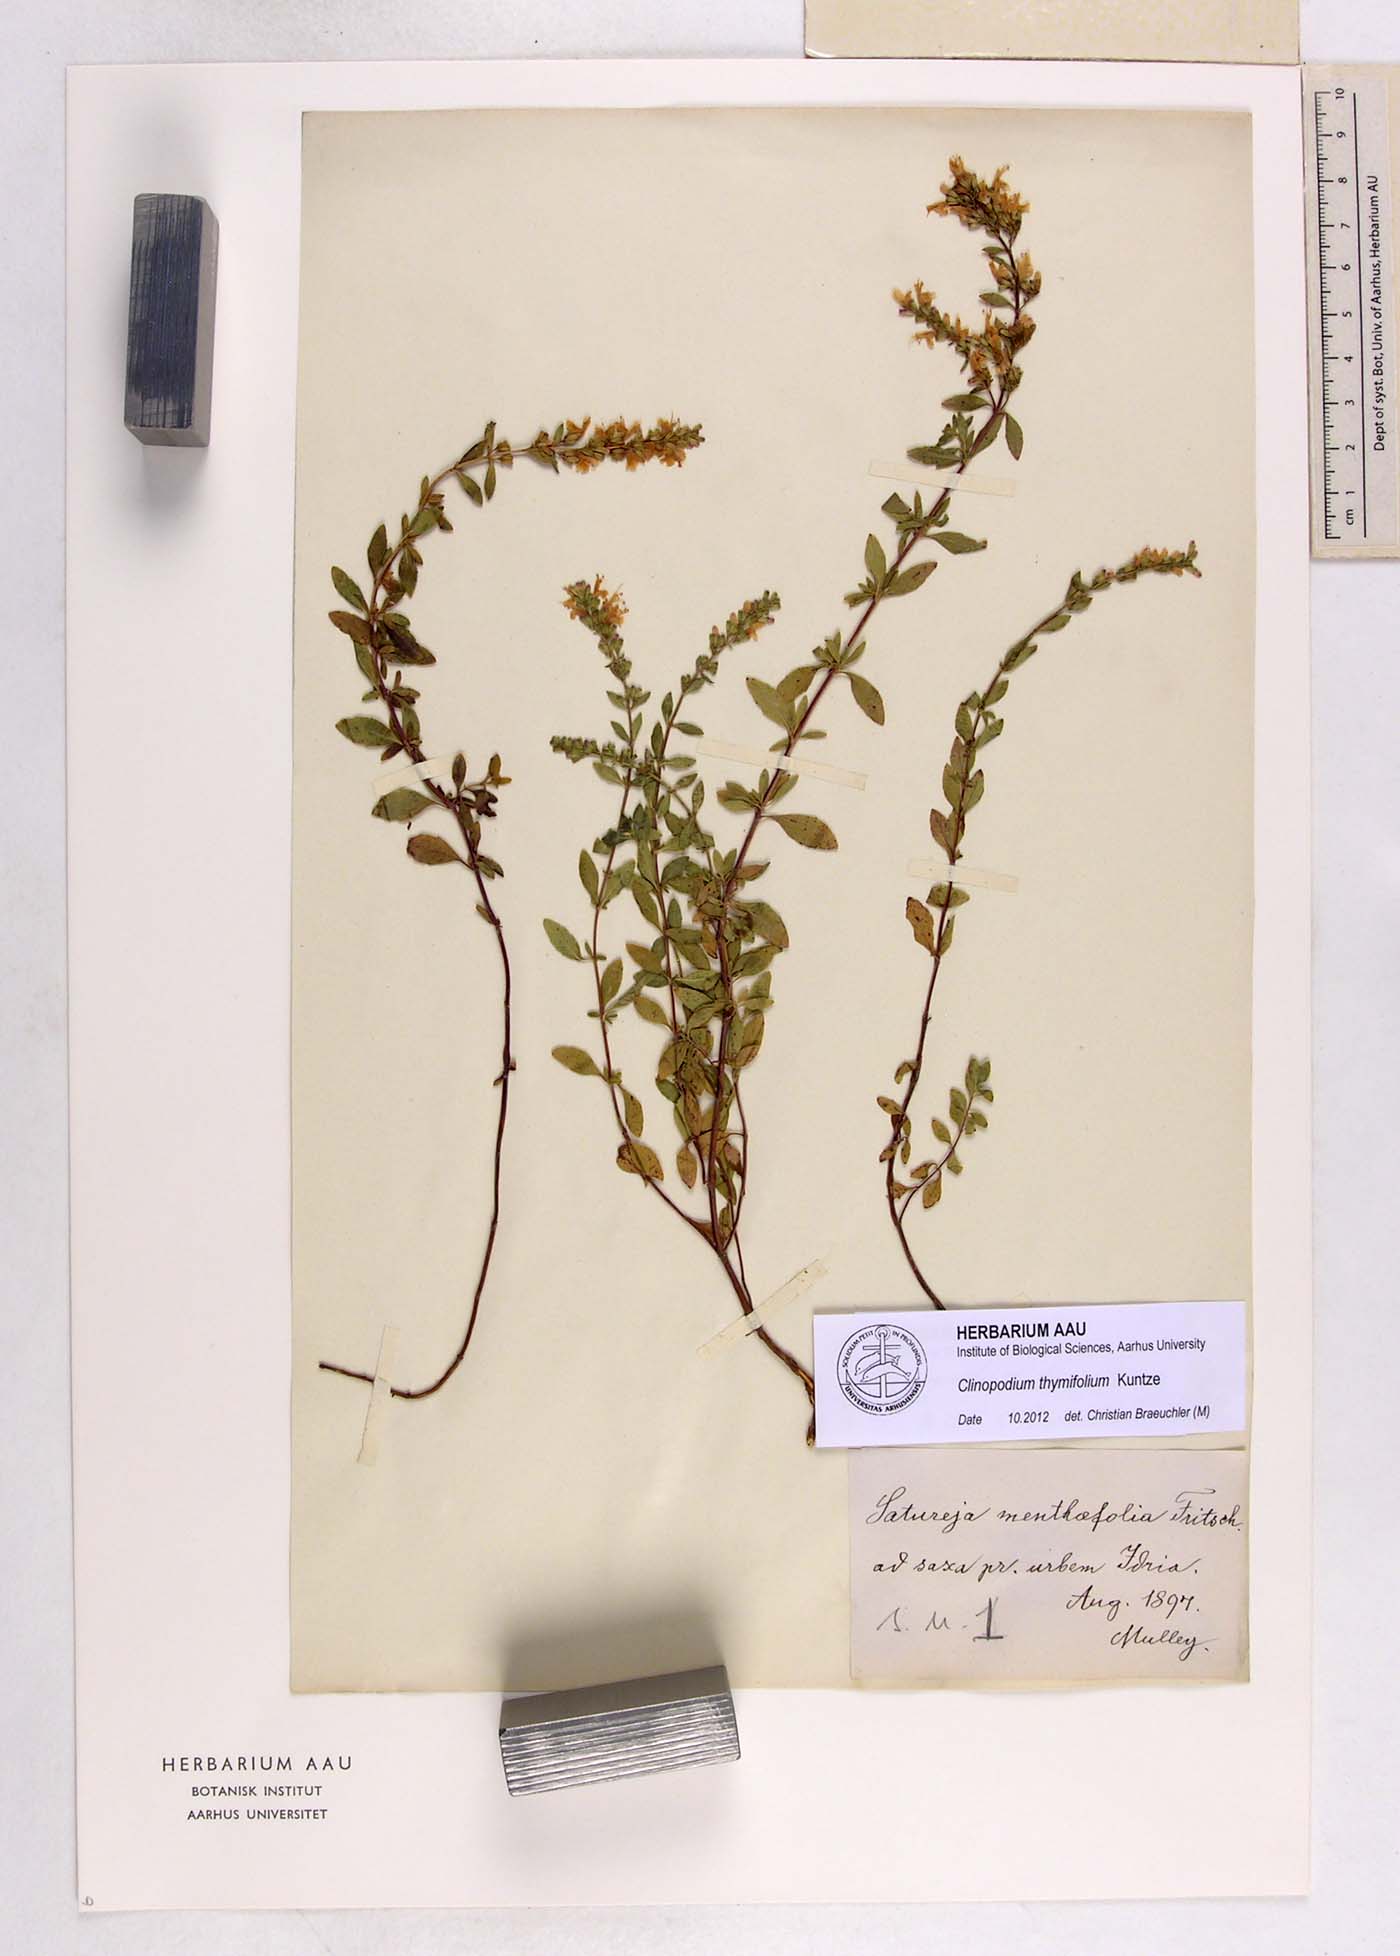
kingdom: Plantae
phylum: Tracheophyta
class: Magnoliopsida
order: Lamiales
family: Lamiaceae
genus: Clinopodium
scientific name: Clinopodium hostii
